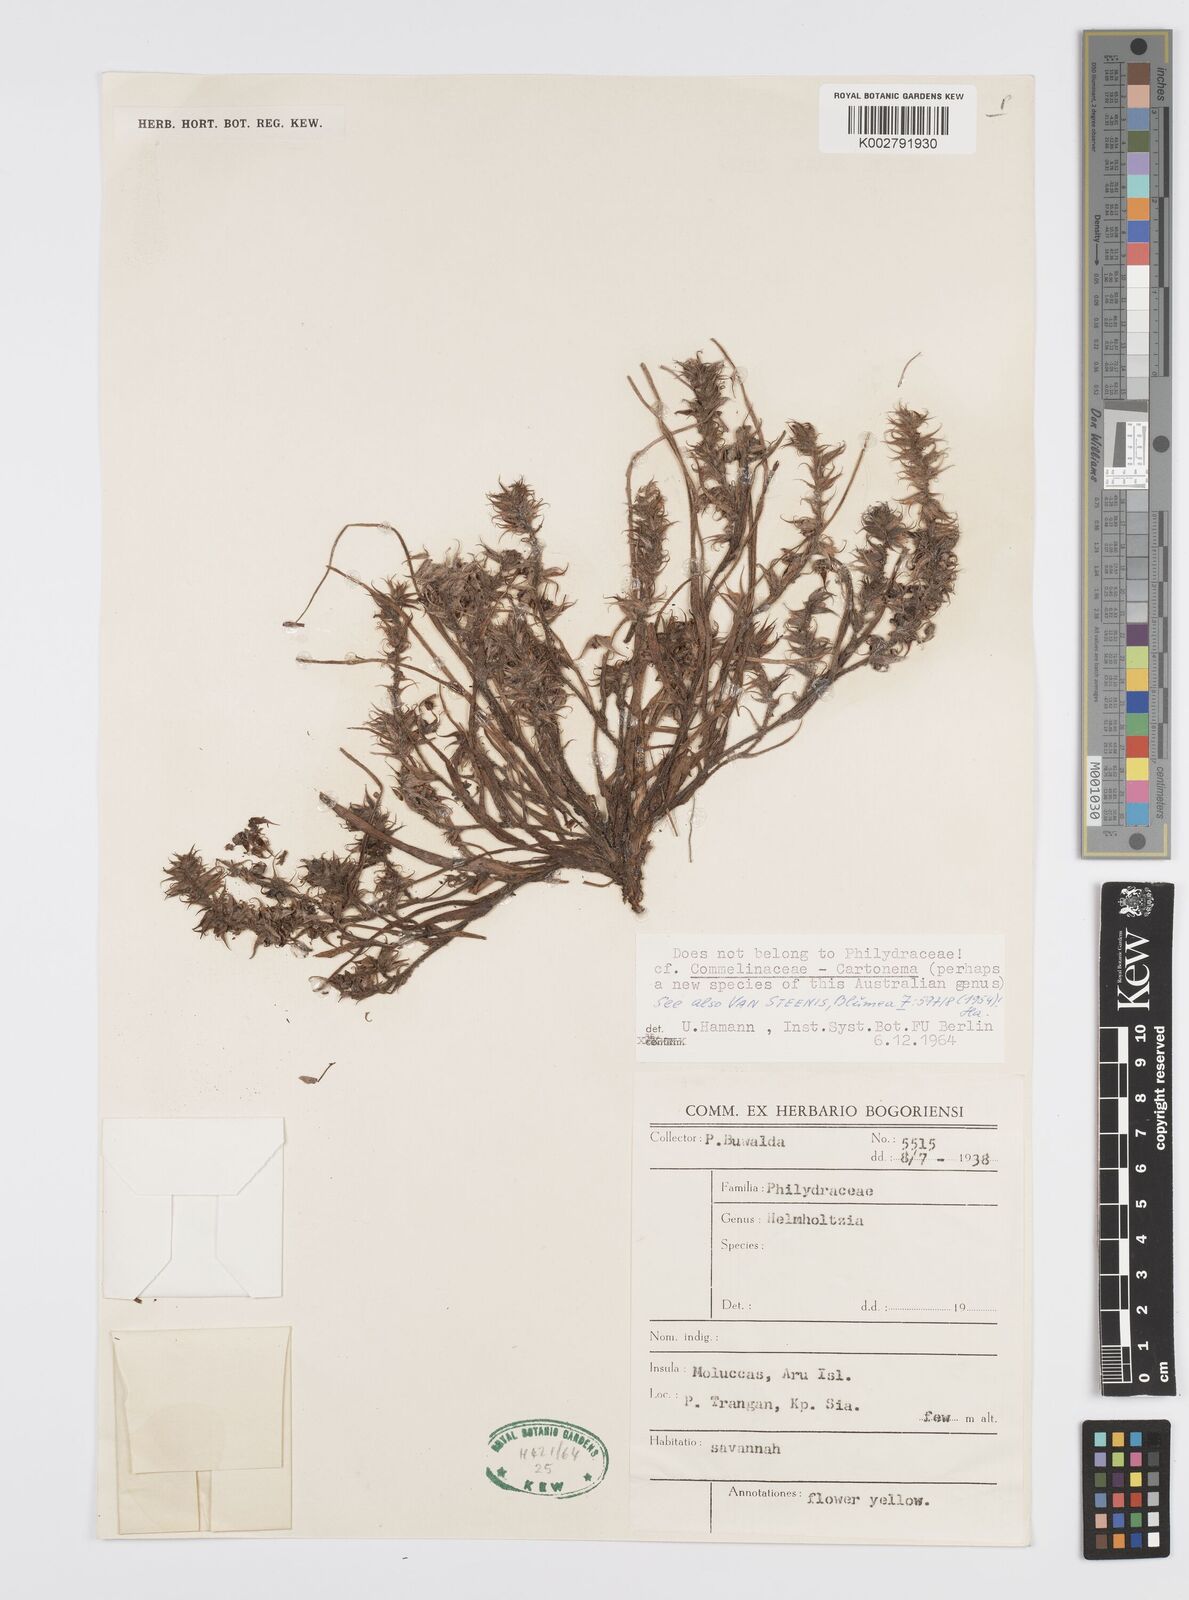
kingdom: Plantae
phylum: Tracheophyta
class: Liliopsida
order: Commelinales
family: Commelinaceae
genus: Cartonema
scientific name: Cartonema
